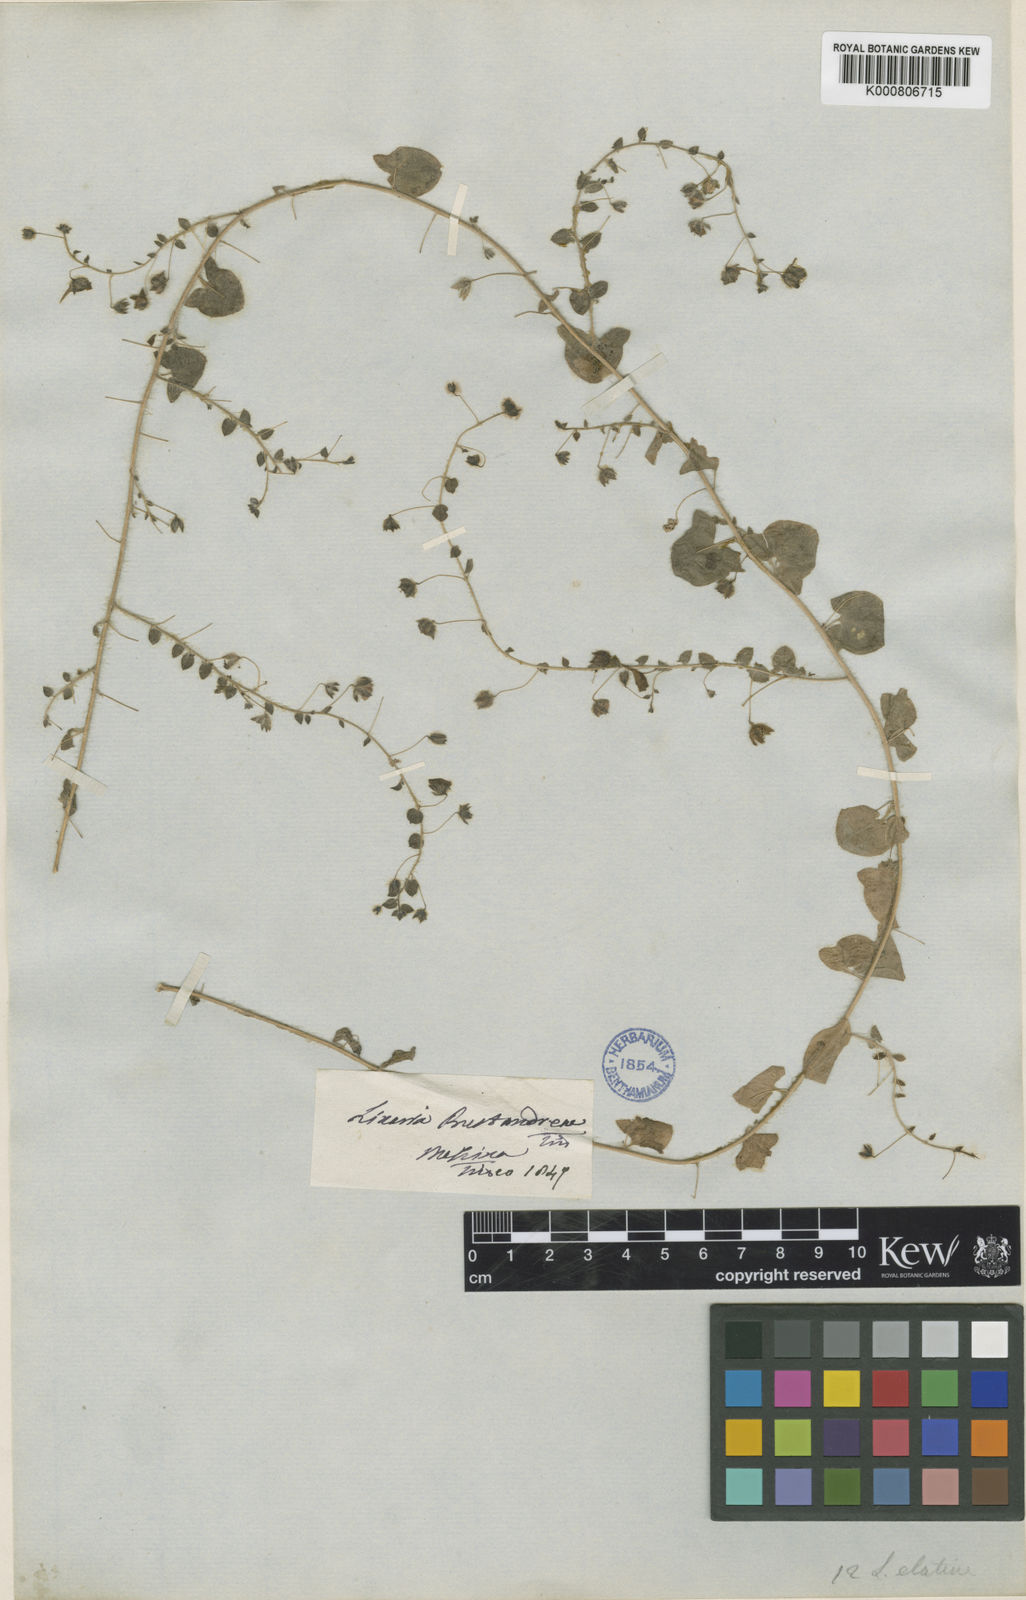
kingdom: Plantae
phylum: Tracheophyta
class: Magnoliopsida
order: Lamiales
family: Plantaginaceae
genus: Kickxia
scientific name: Kickxia elatine
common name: Sharp-leaved fluellen
